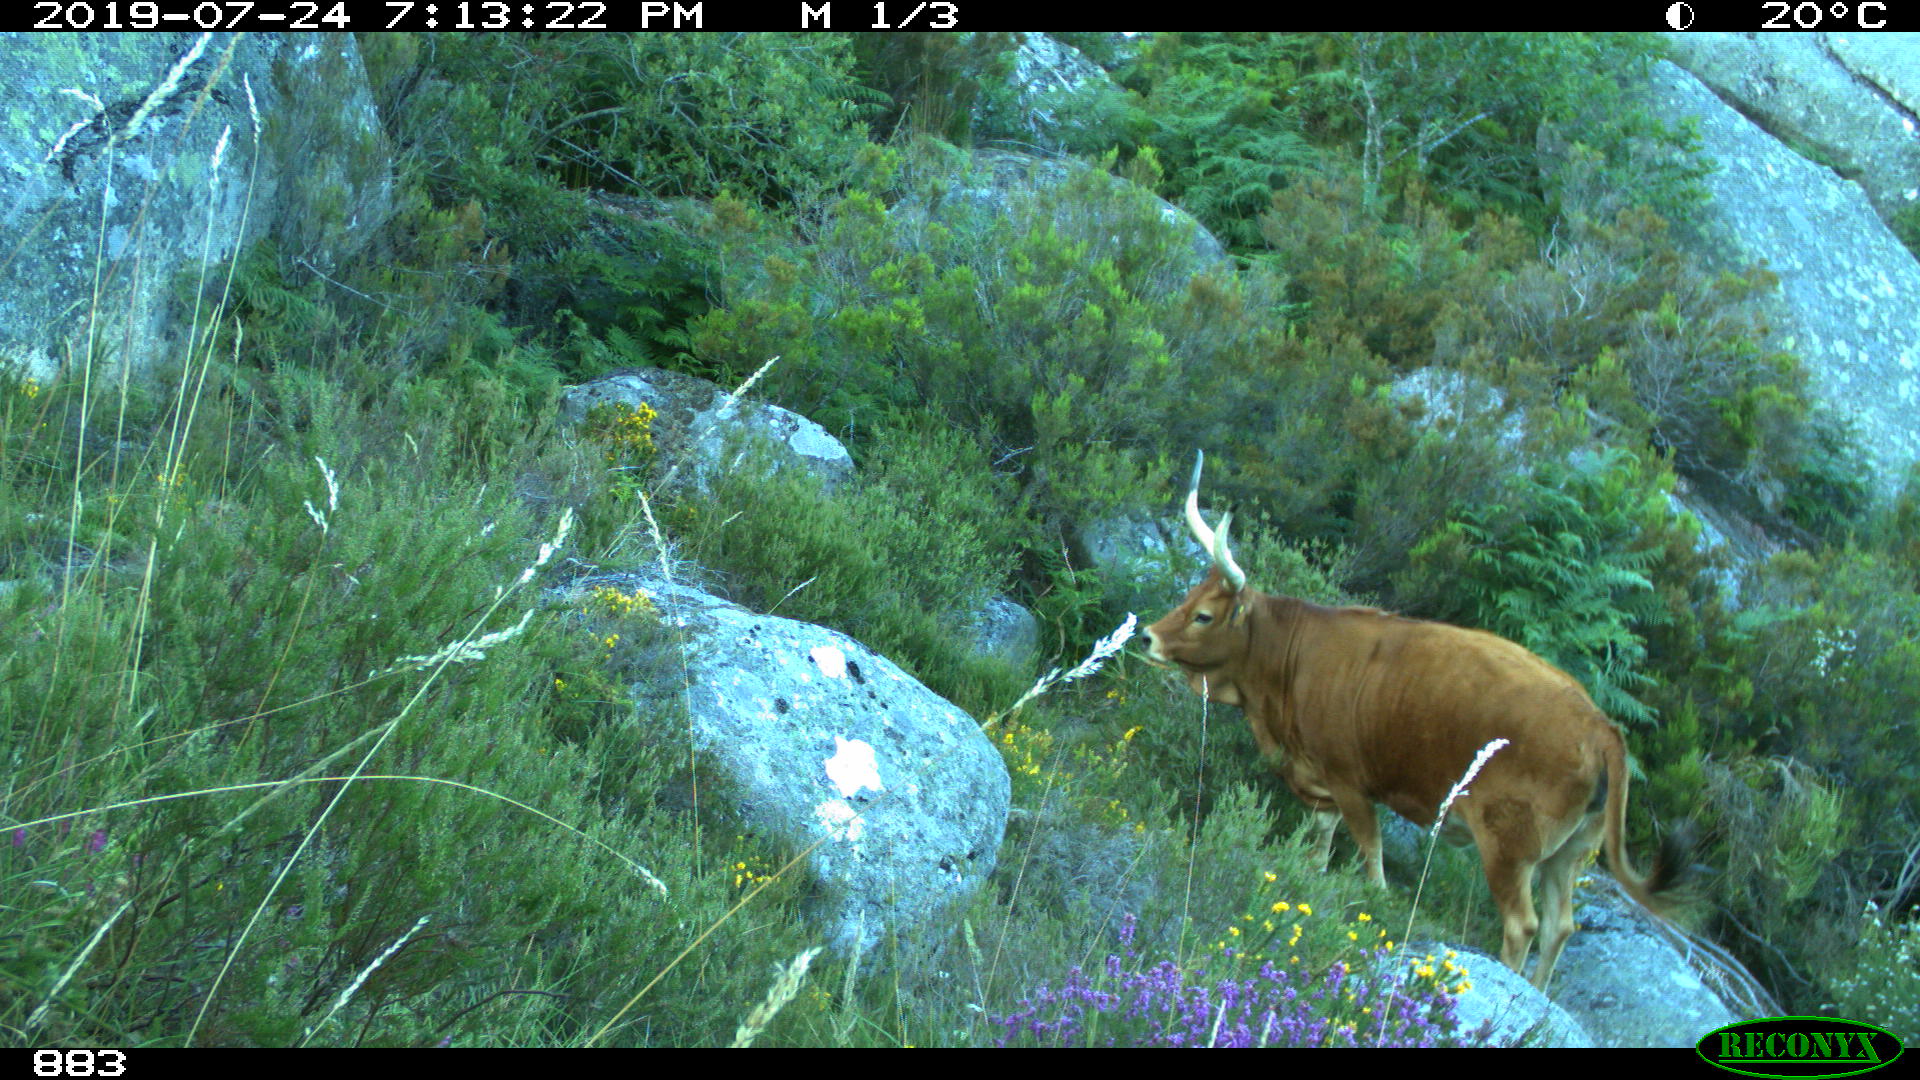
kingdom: Animalia
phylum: Chordata
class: Mammalia
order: Artiodactyla
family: Bovidae
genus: Bos
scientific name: Bos taurus
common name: Domesticated cattle
